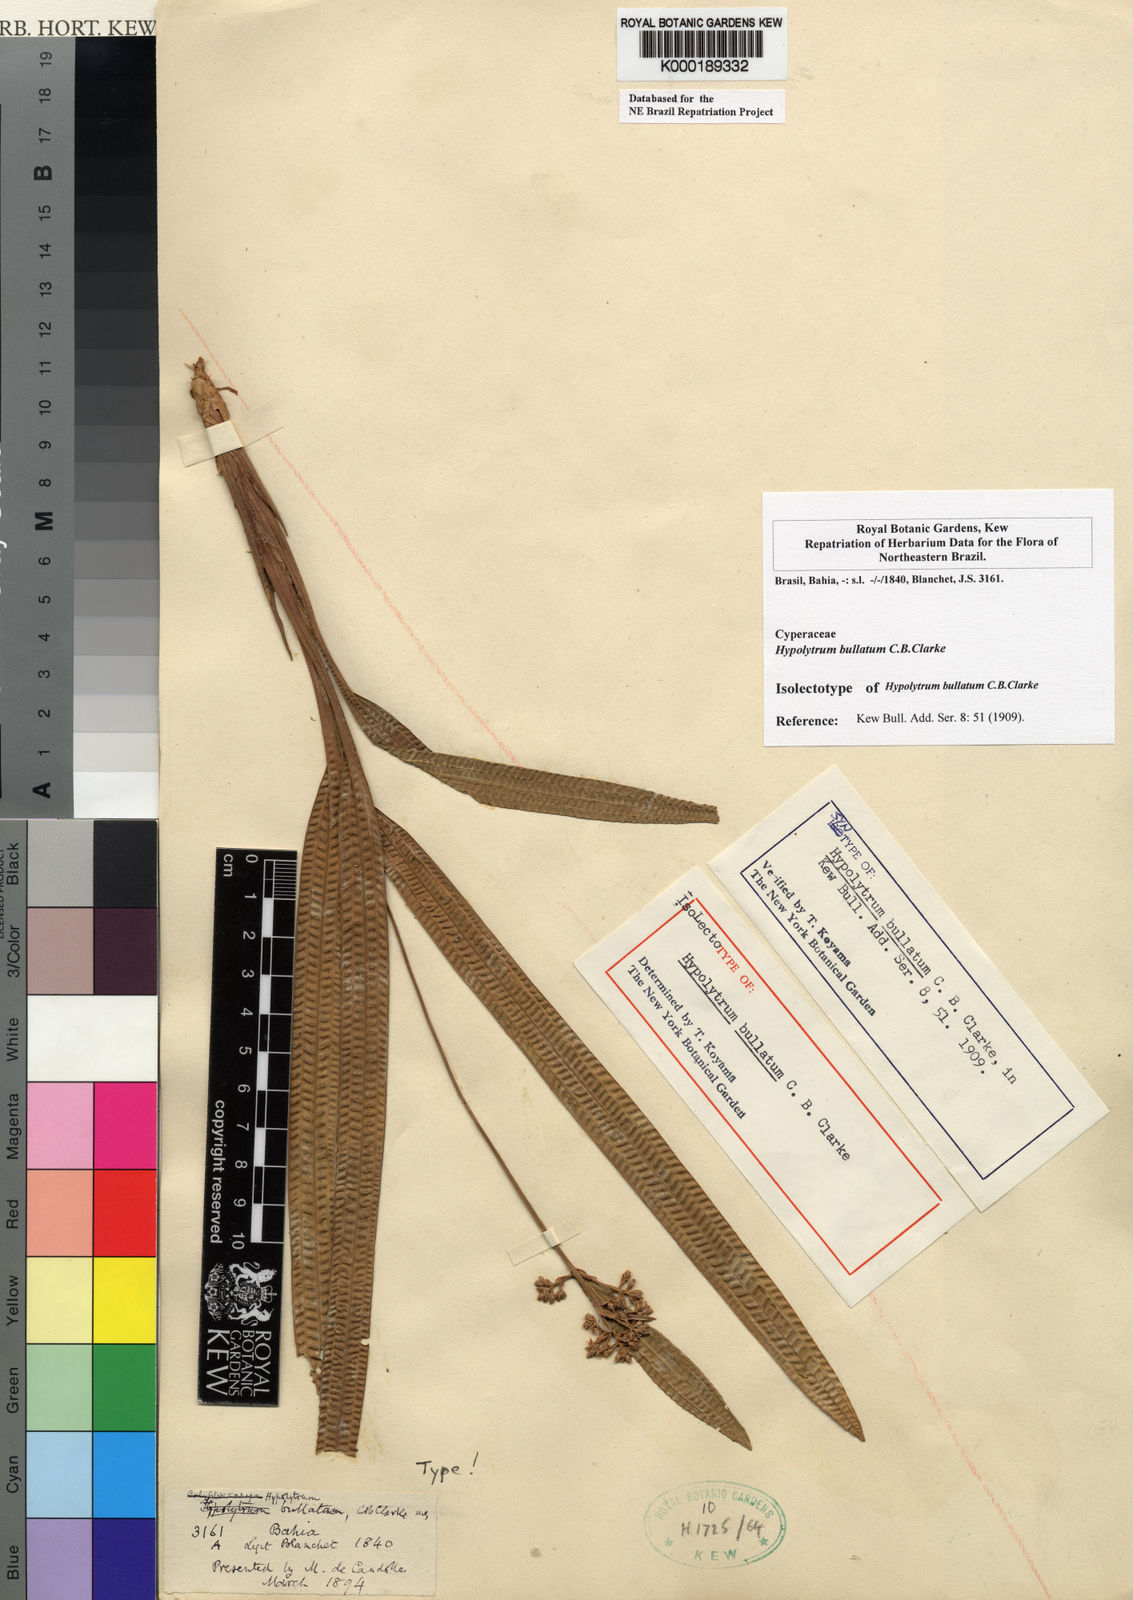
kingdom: Plantae
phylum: Tracheophyta
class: Liliopsida
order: Poales
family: Cyperaceae
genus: Hypolytrum
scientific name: Hypolytrum bullatum
